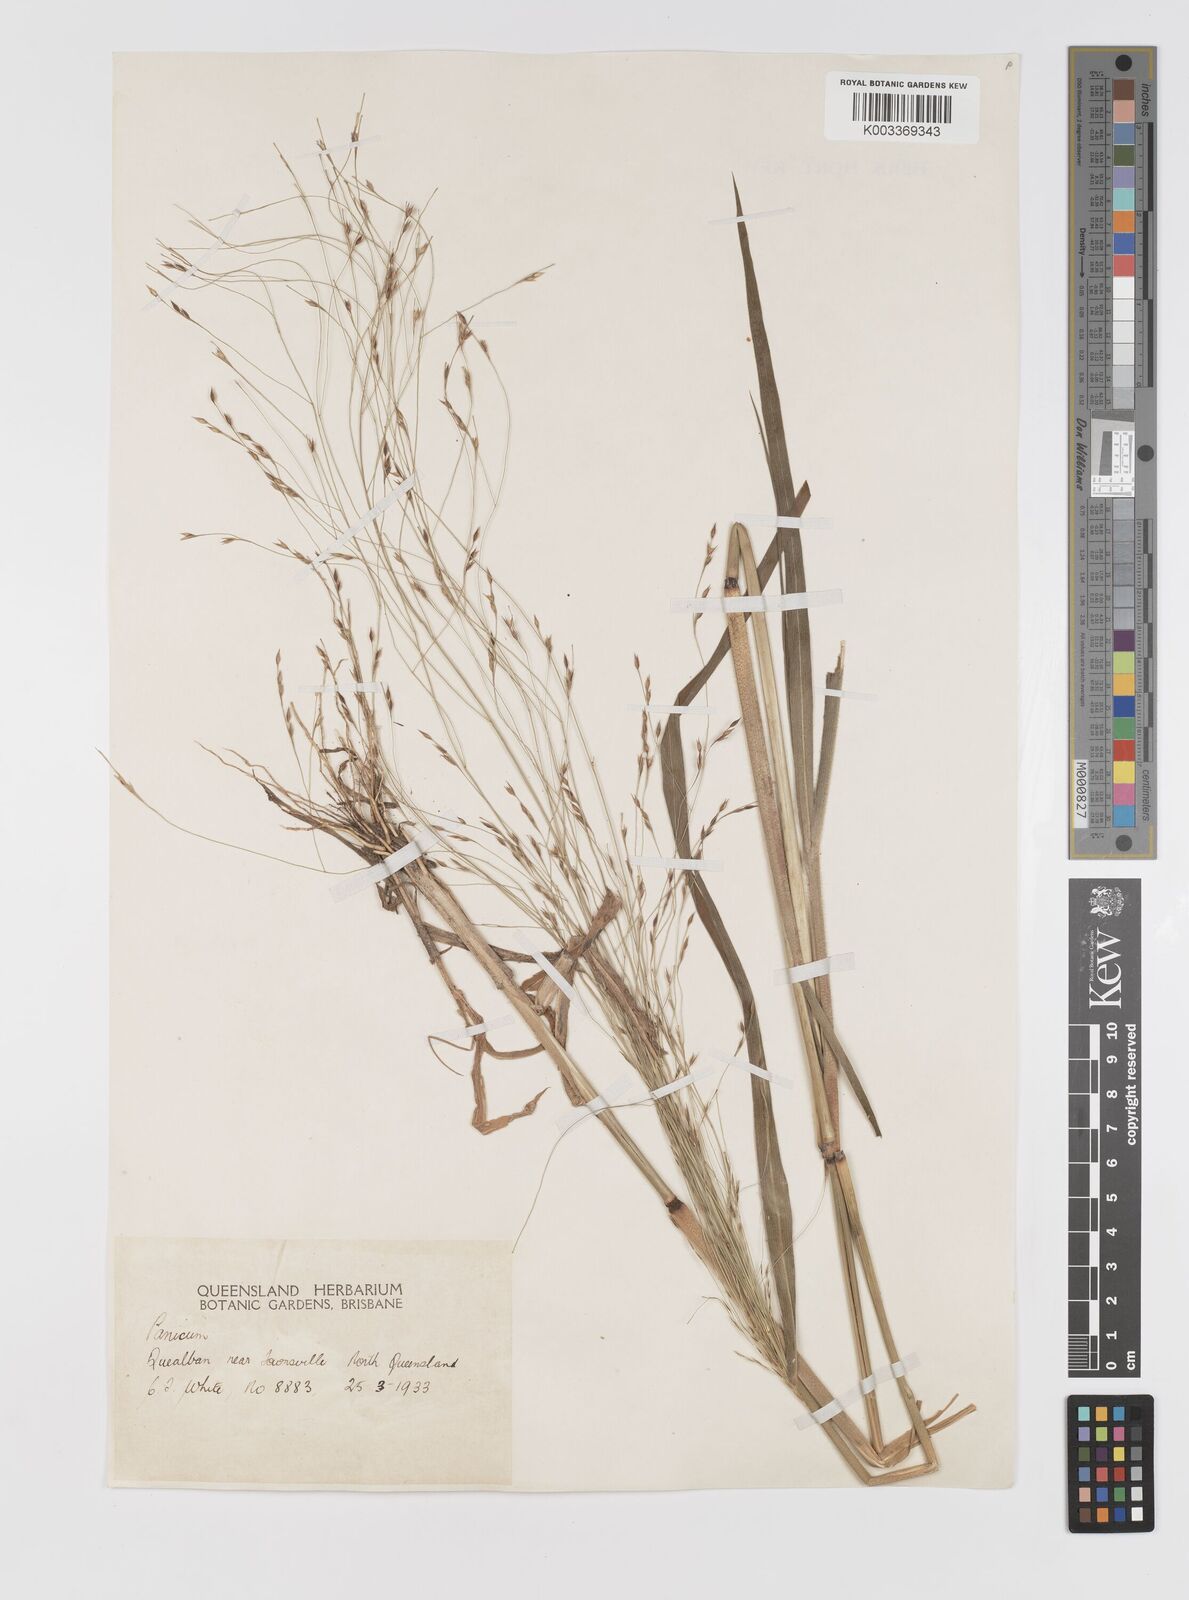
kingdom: Plantae
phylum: Tracheophyta
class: Liliopsida
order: Poales
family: Poaceae
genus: Panicum
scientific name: Panicum seminudum
